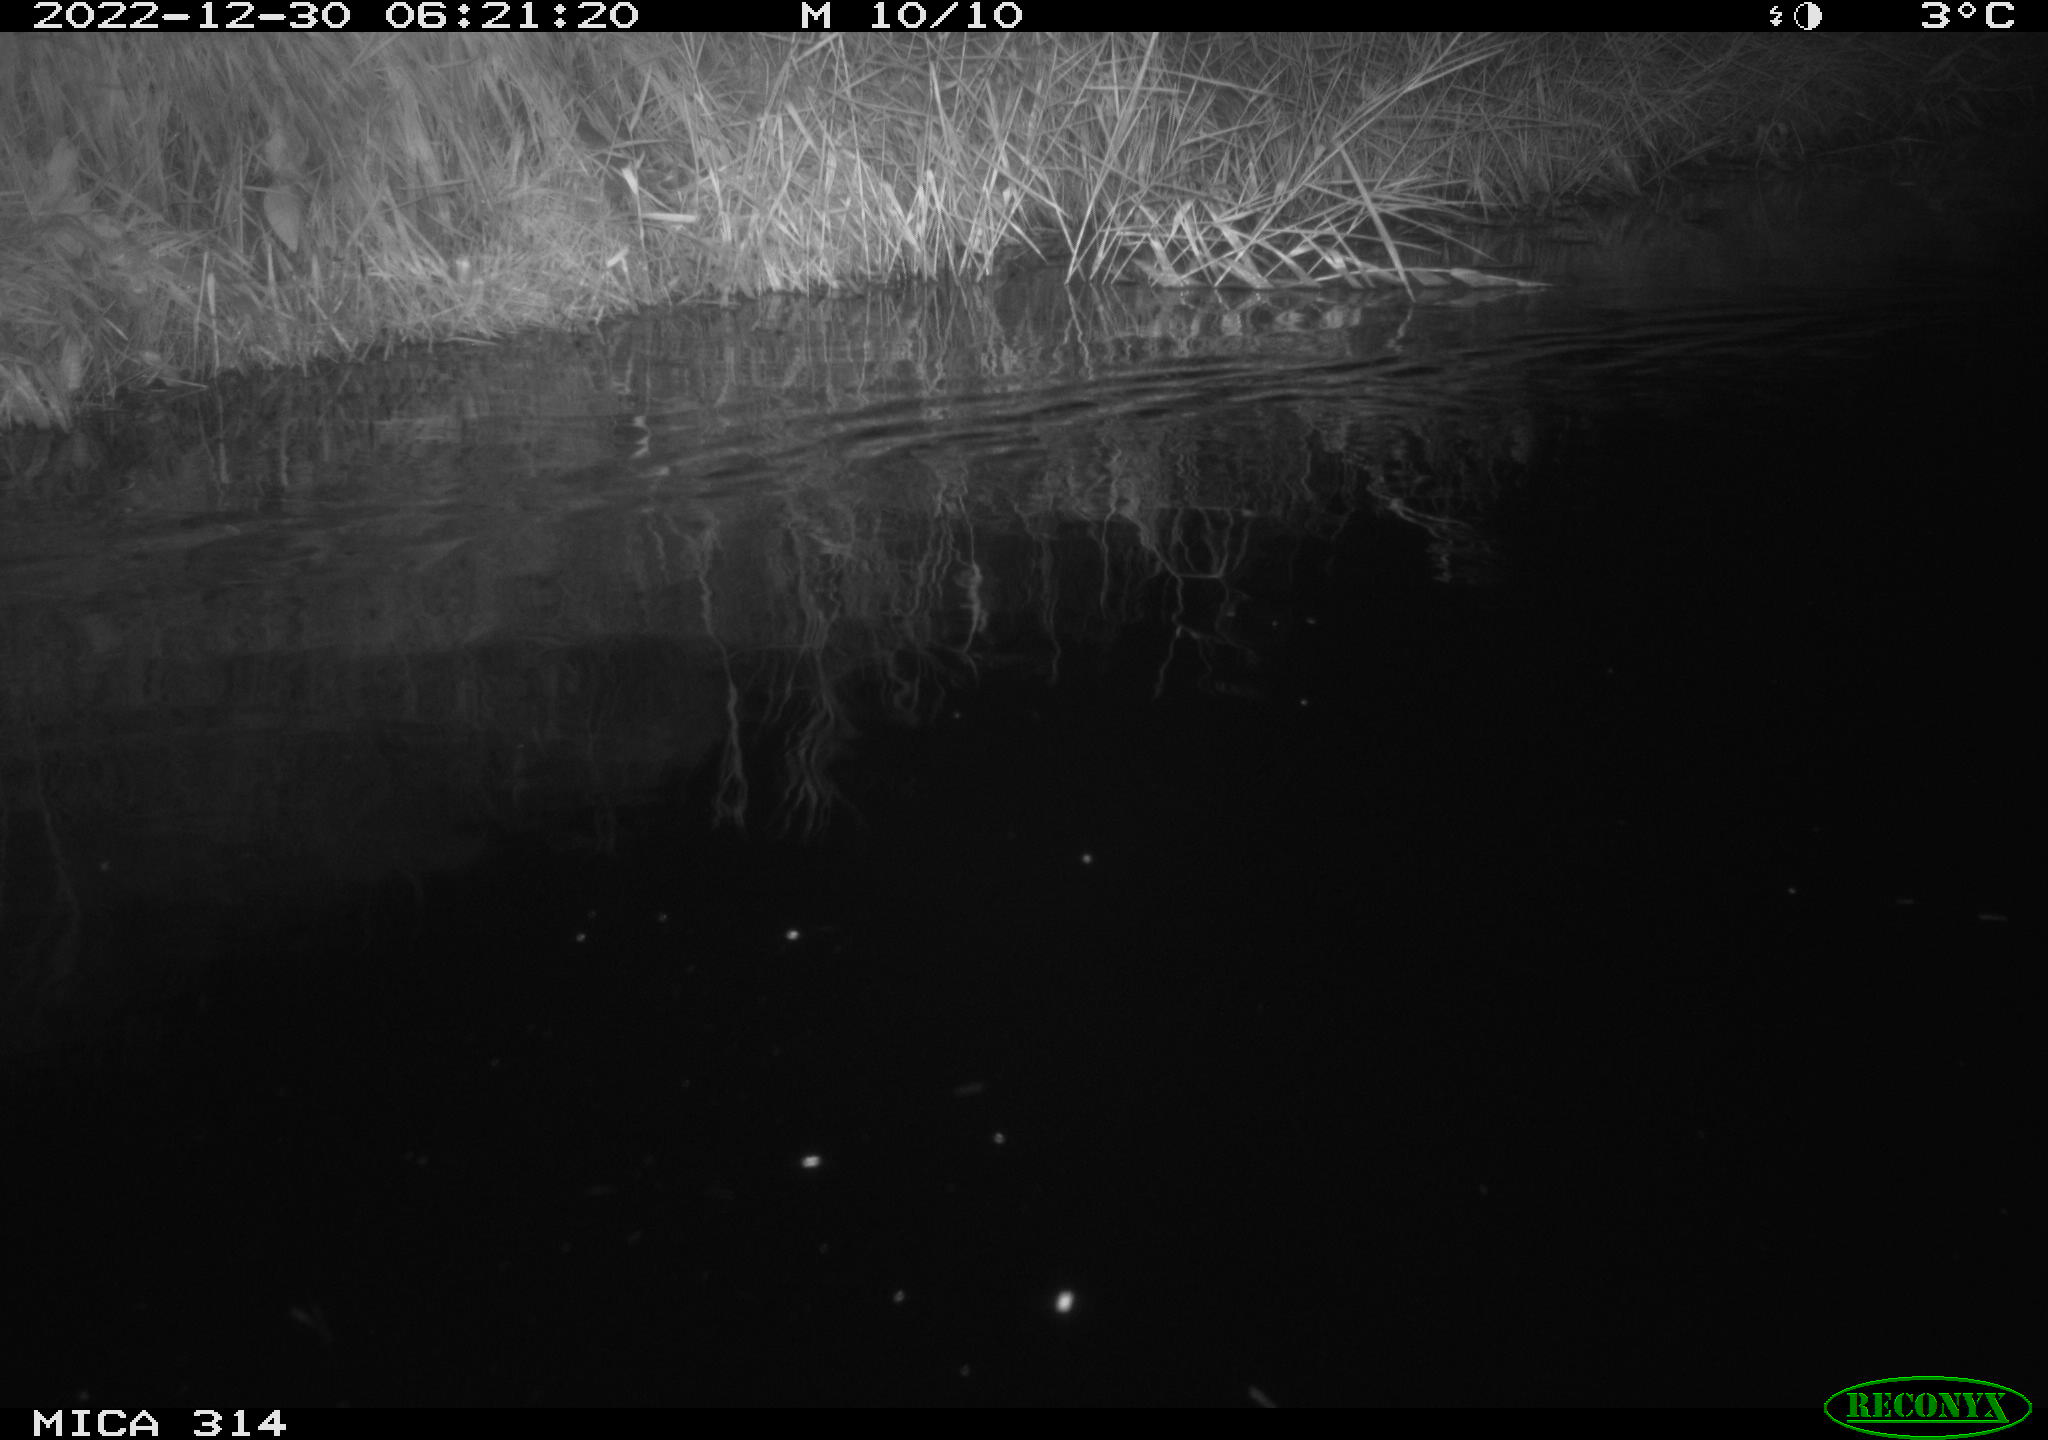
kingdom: Animalia
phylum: Chordata
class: Mammalia
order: Rodentia
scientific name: Rodentia
